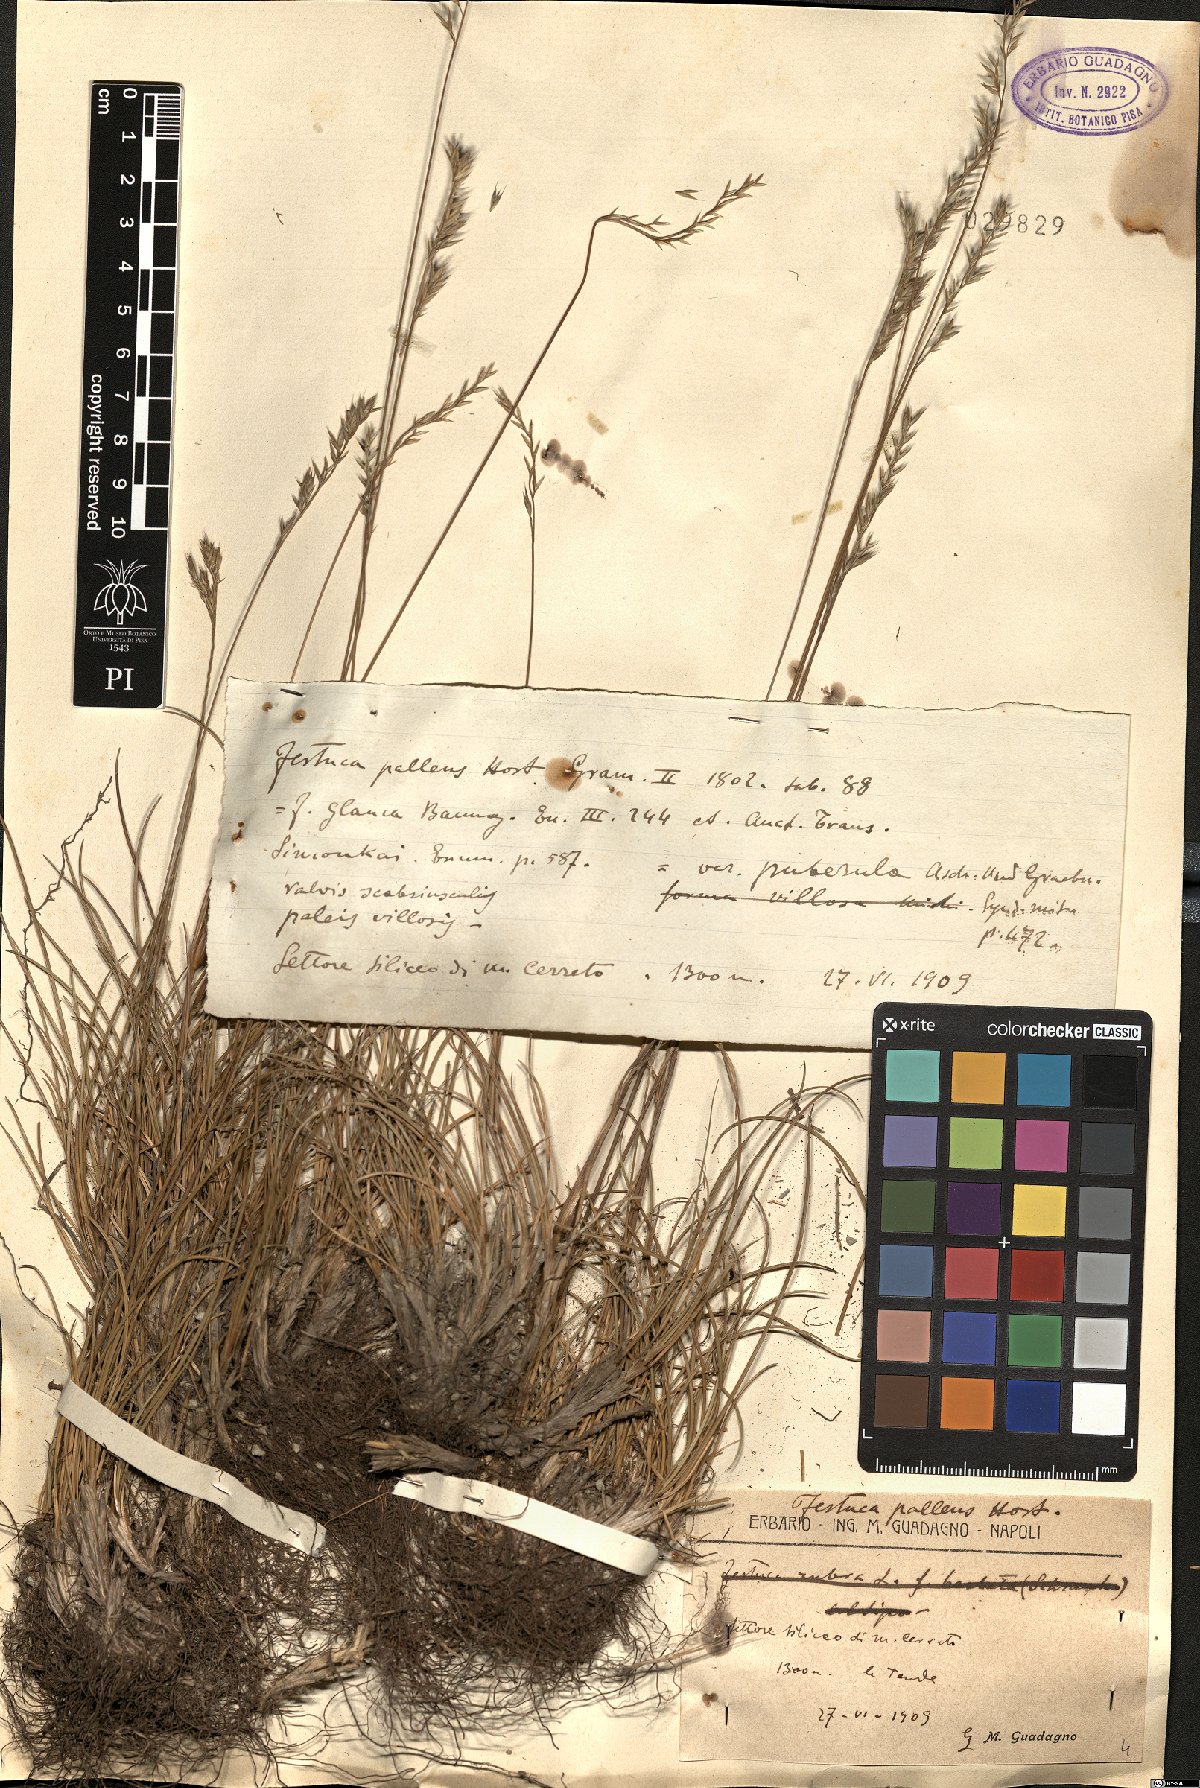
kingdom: Plantae
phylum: Tracheophyta
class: Liliopsida
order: Poales
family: Poaceae
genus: Festuca
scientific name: Festuca circummediterranea
